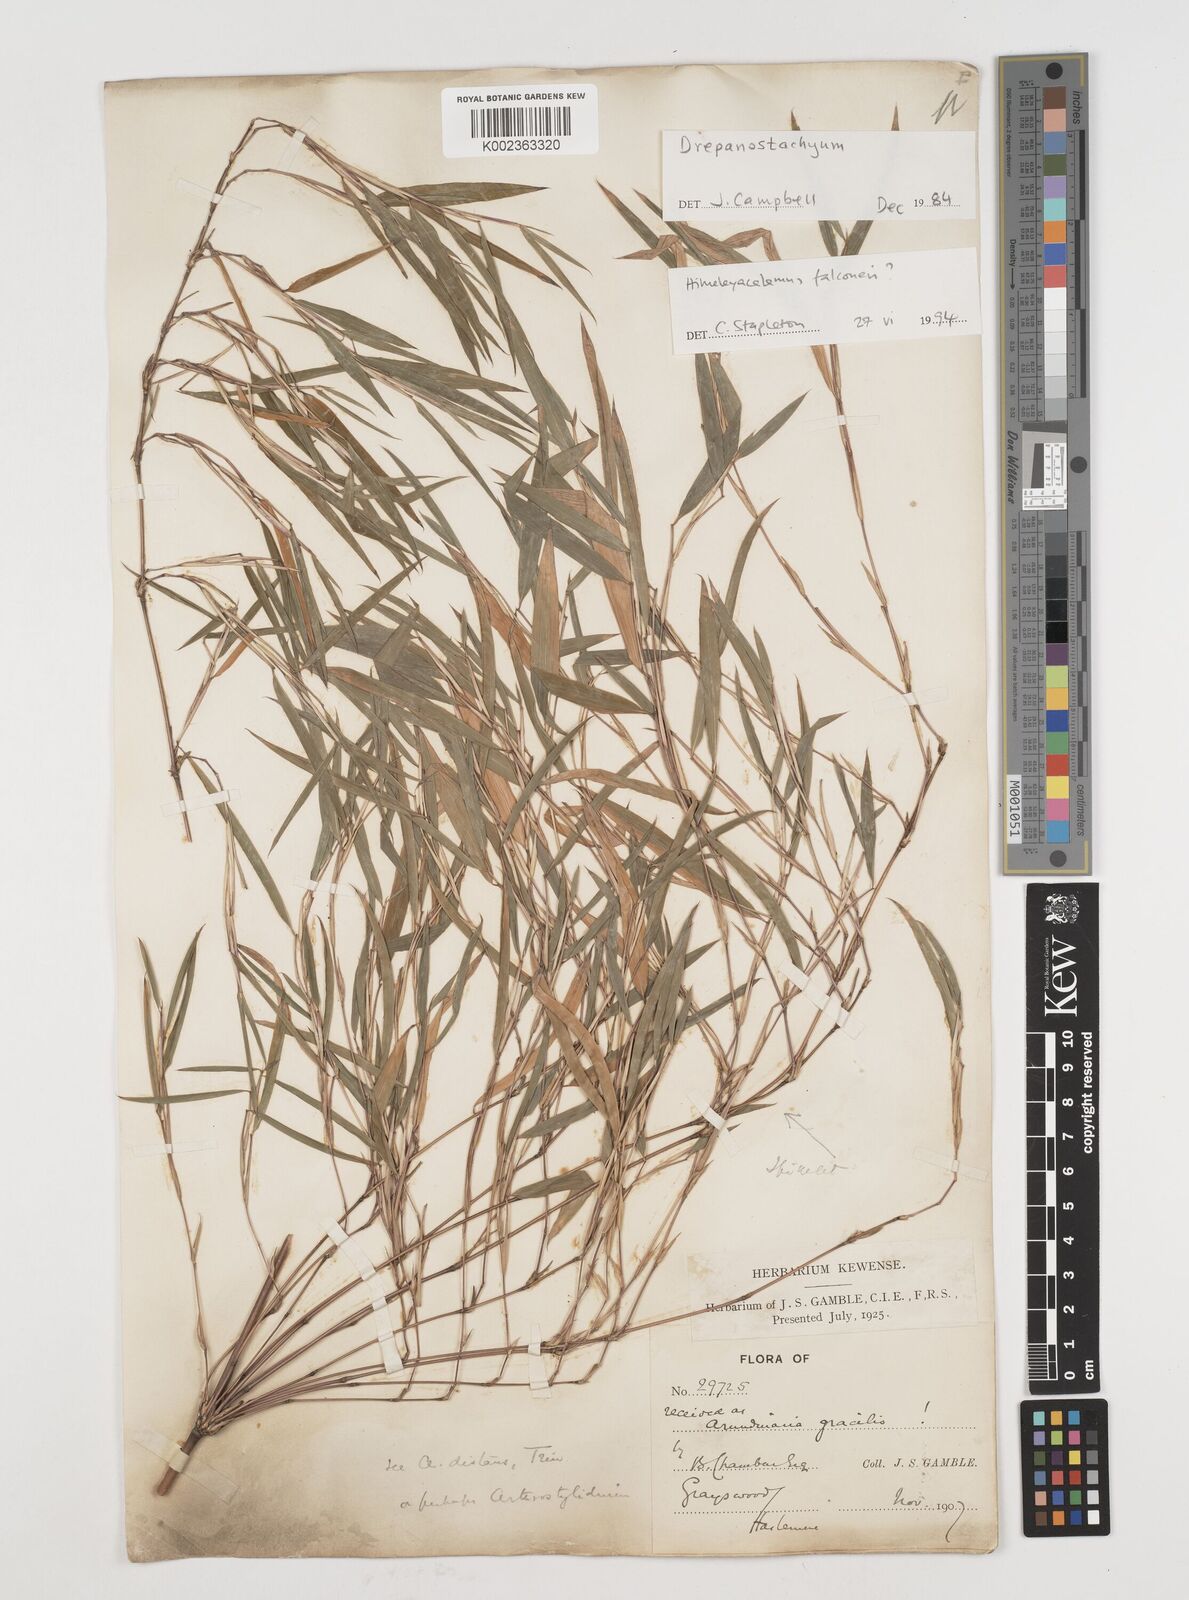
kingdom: Plantae
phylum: Tracheophyta
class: Liliopsida
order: Poales
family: Poaceae
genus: Himalayacalamus
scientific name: Himalayacalamus falconeri
